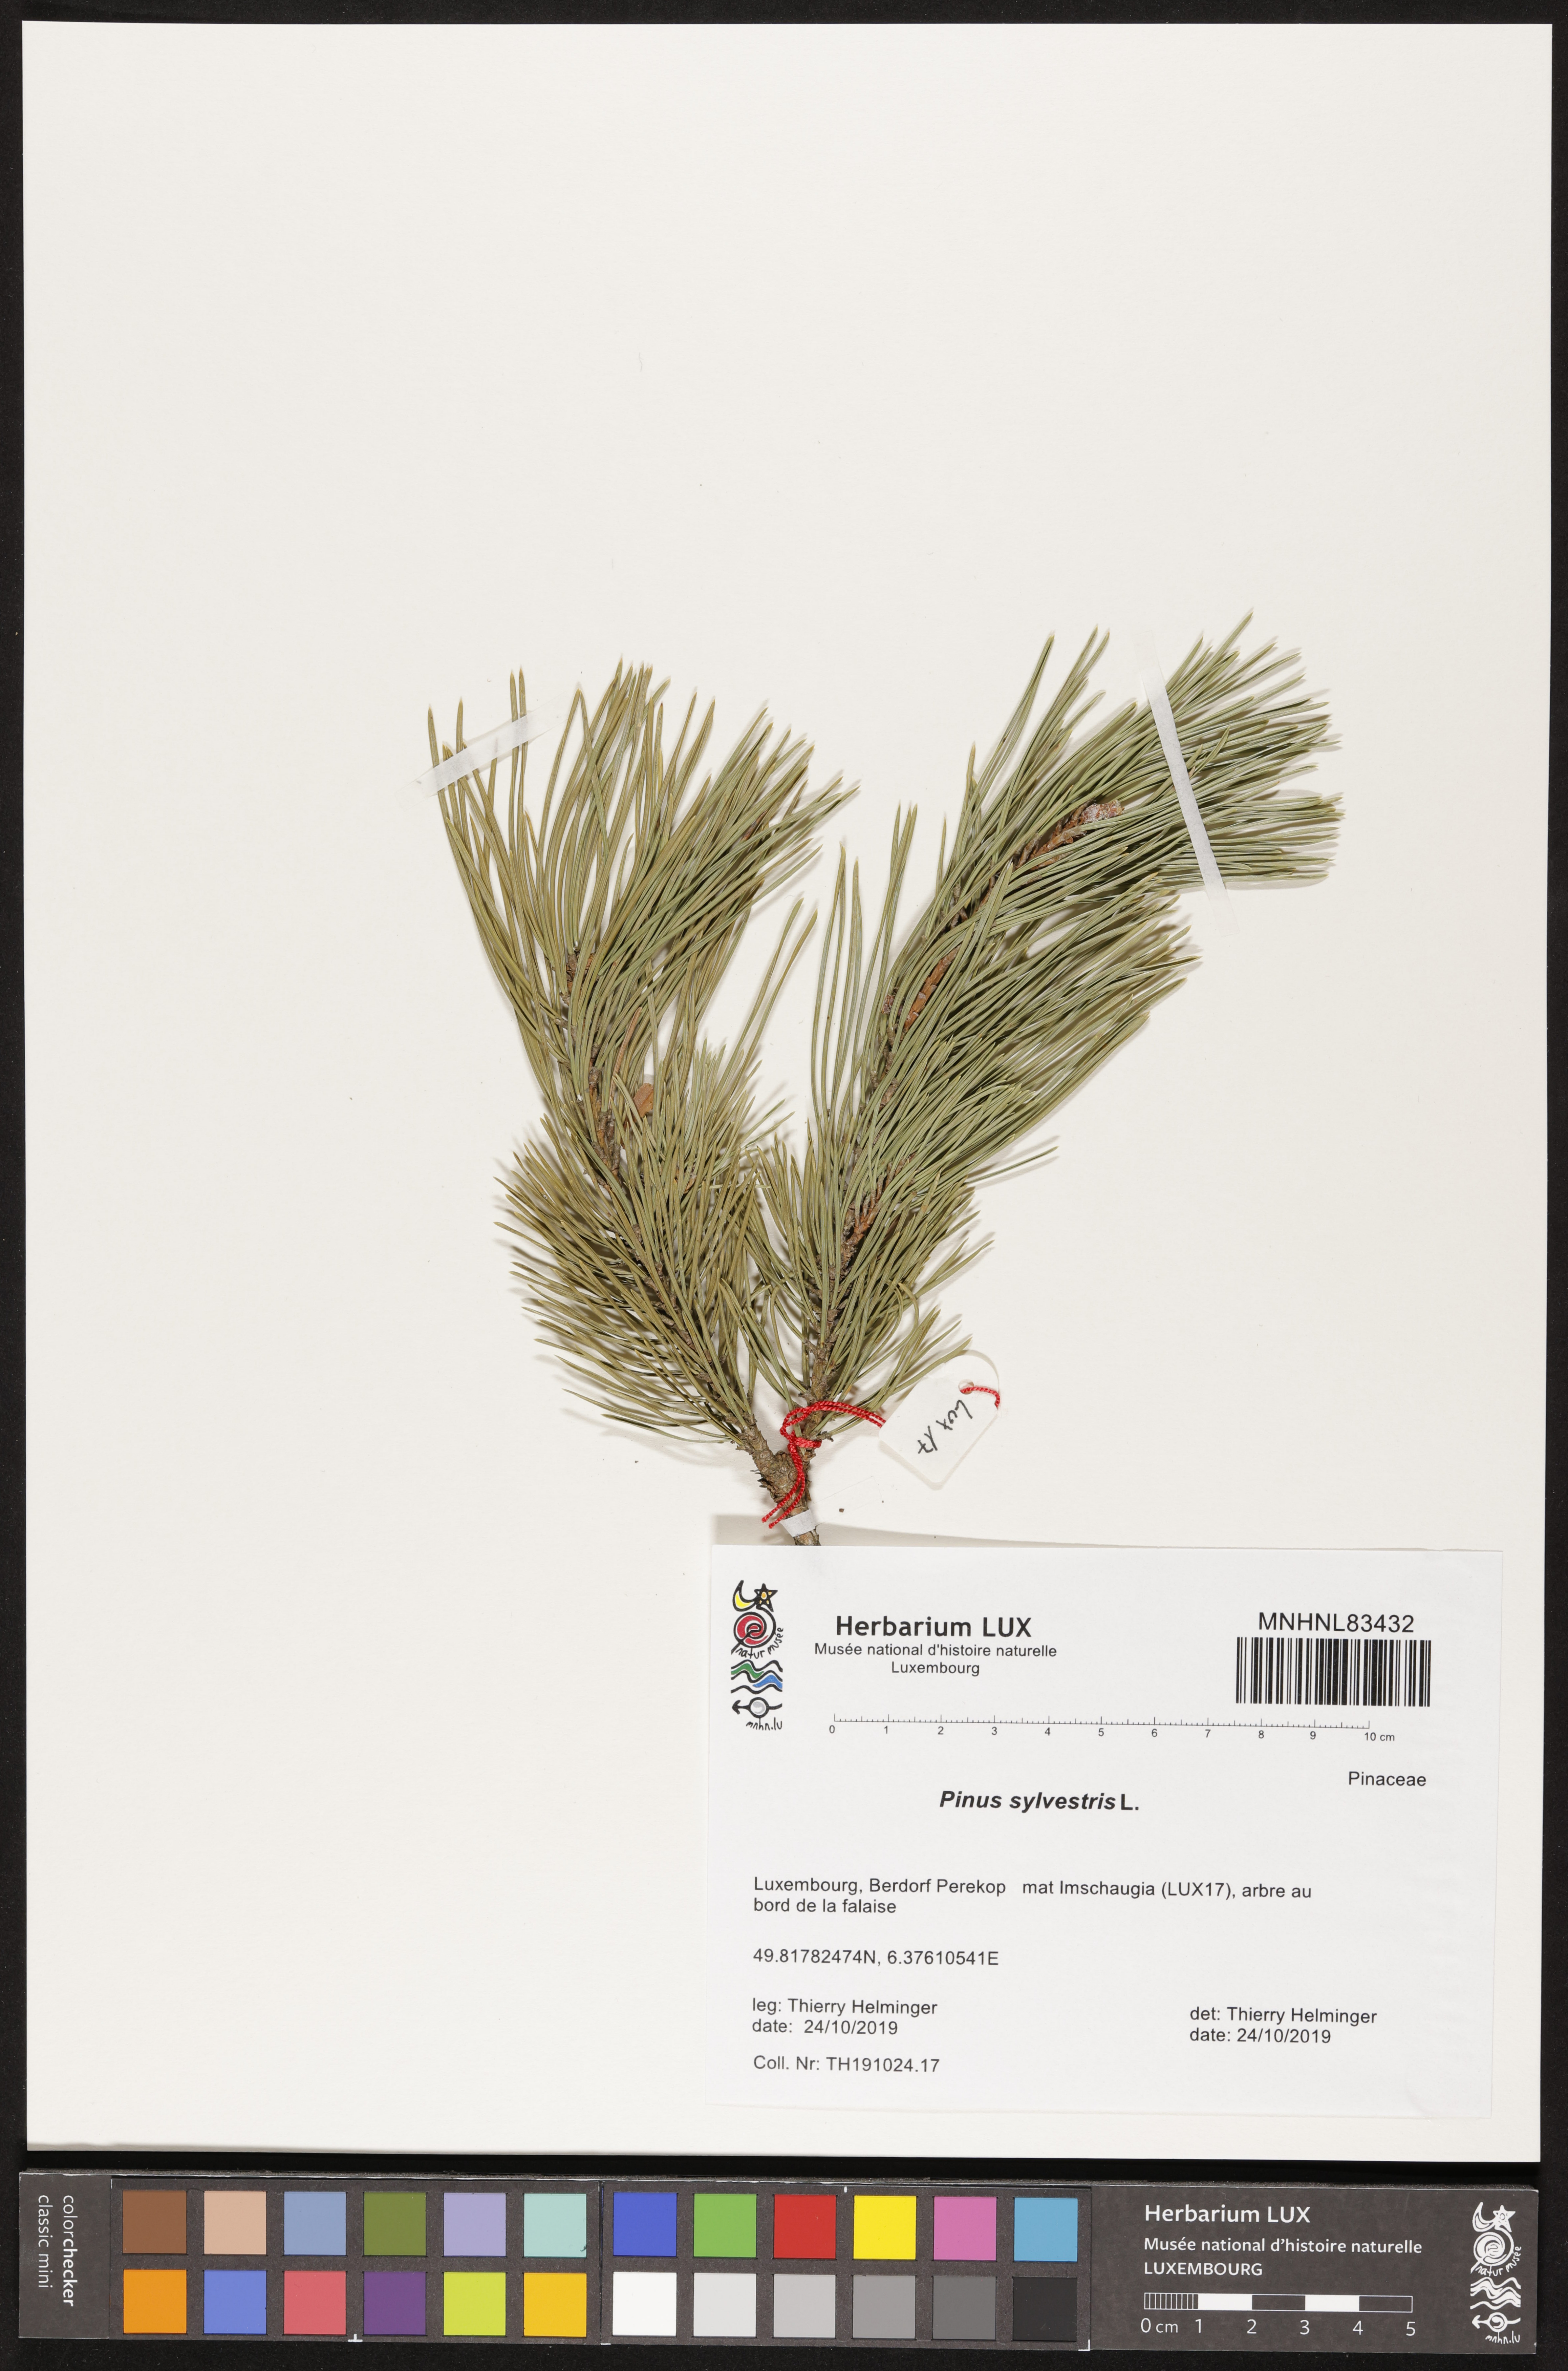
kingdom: Plantae
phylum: Tracheophyta
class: Pinopsida
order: Pinales
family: Pinaceae
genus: Pinus
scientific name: Pinus sylvestris
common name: Scots pine
